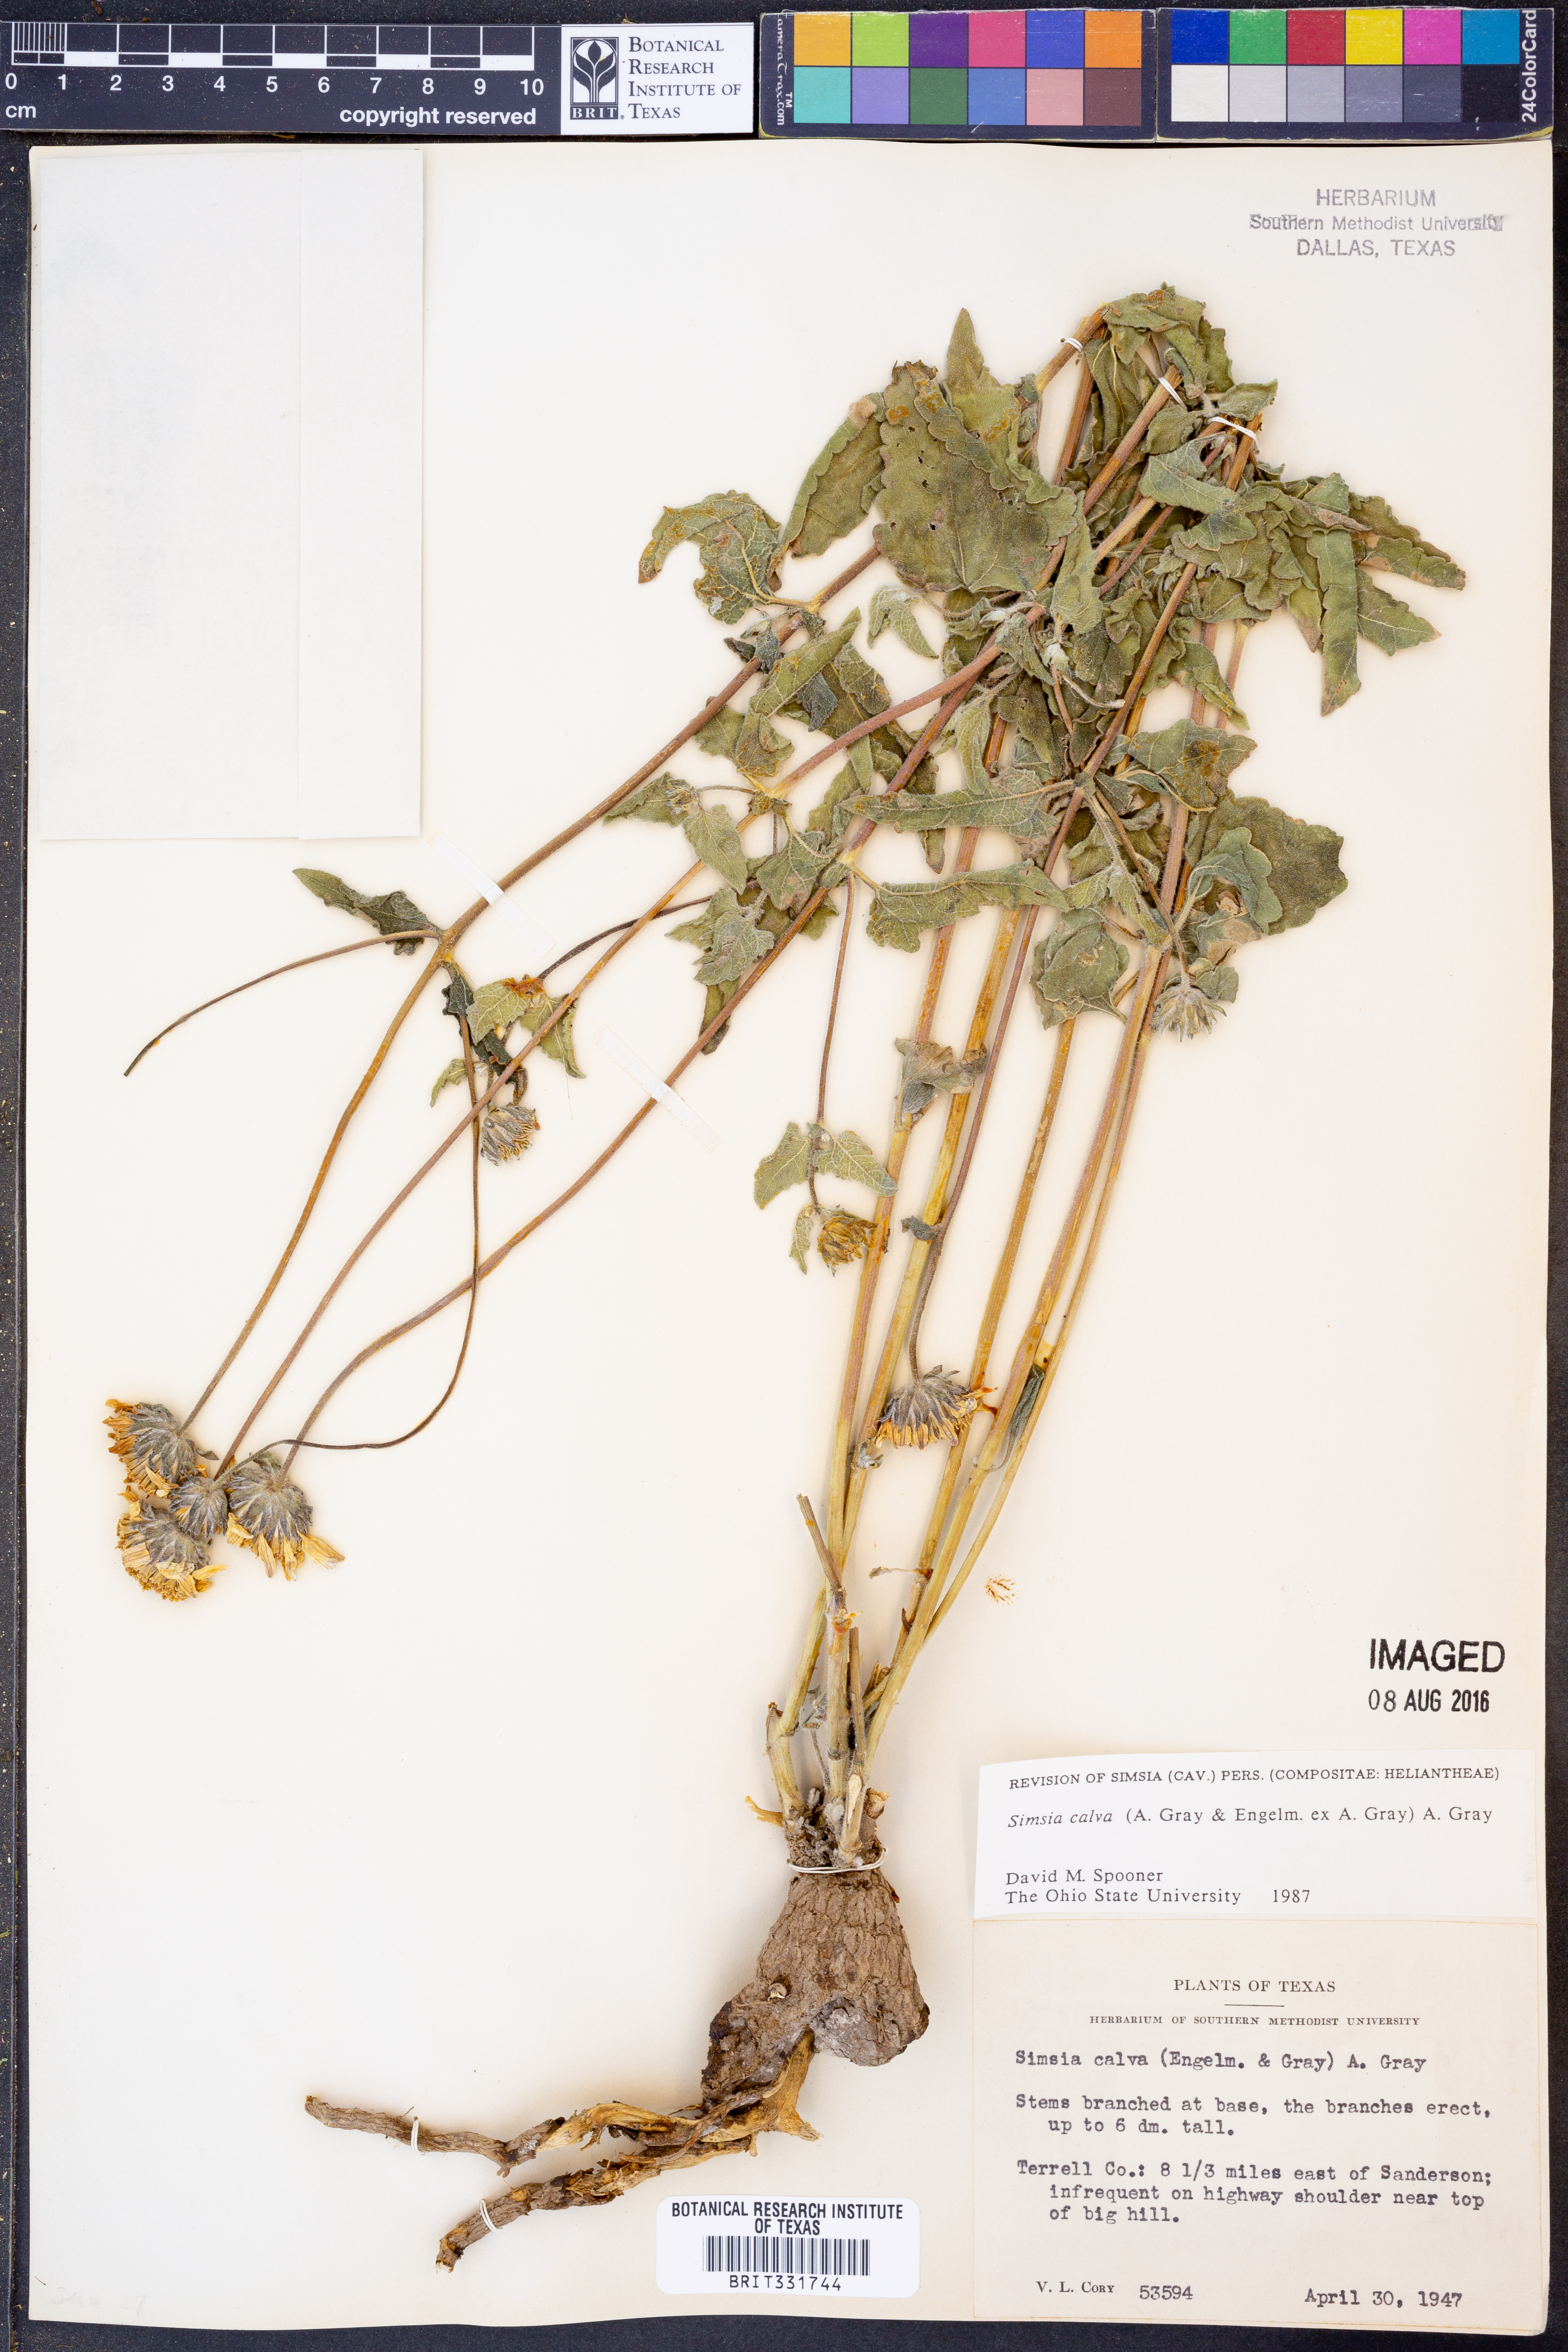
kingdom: Plantae
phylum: Tracheophyta
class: Magnoliopsida
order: Asterales
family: Asteraceae
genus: Simsia
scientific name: Simsia calva
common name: Awnless bush-sunflower
